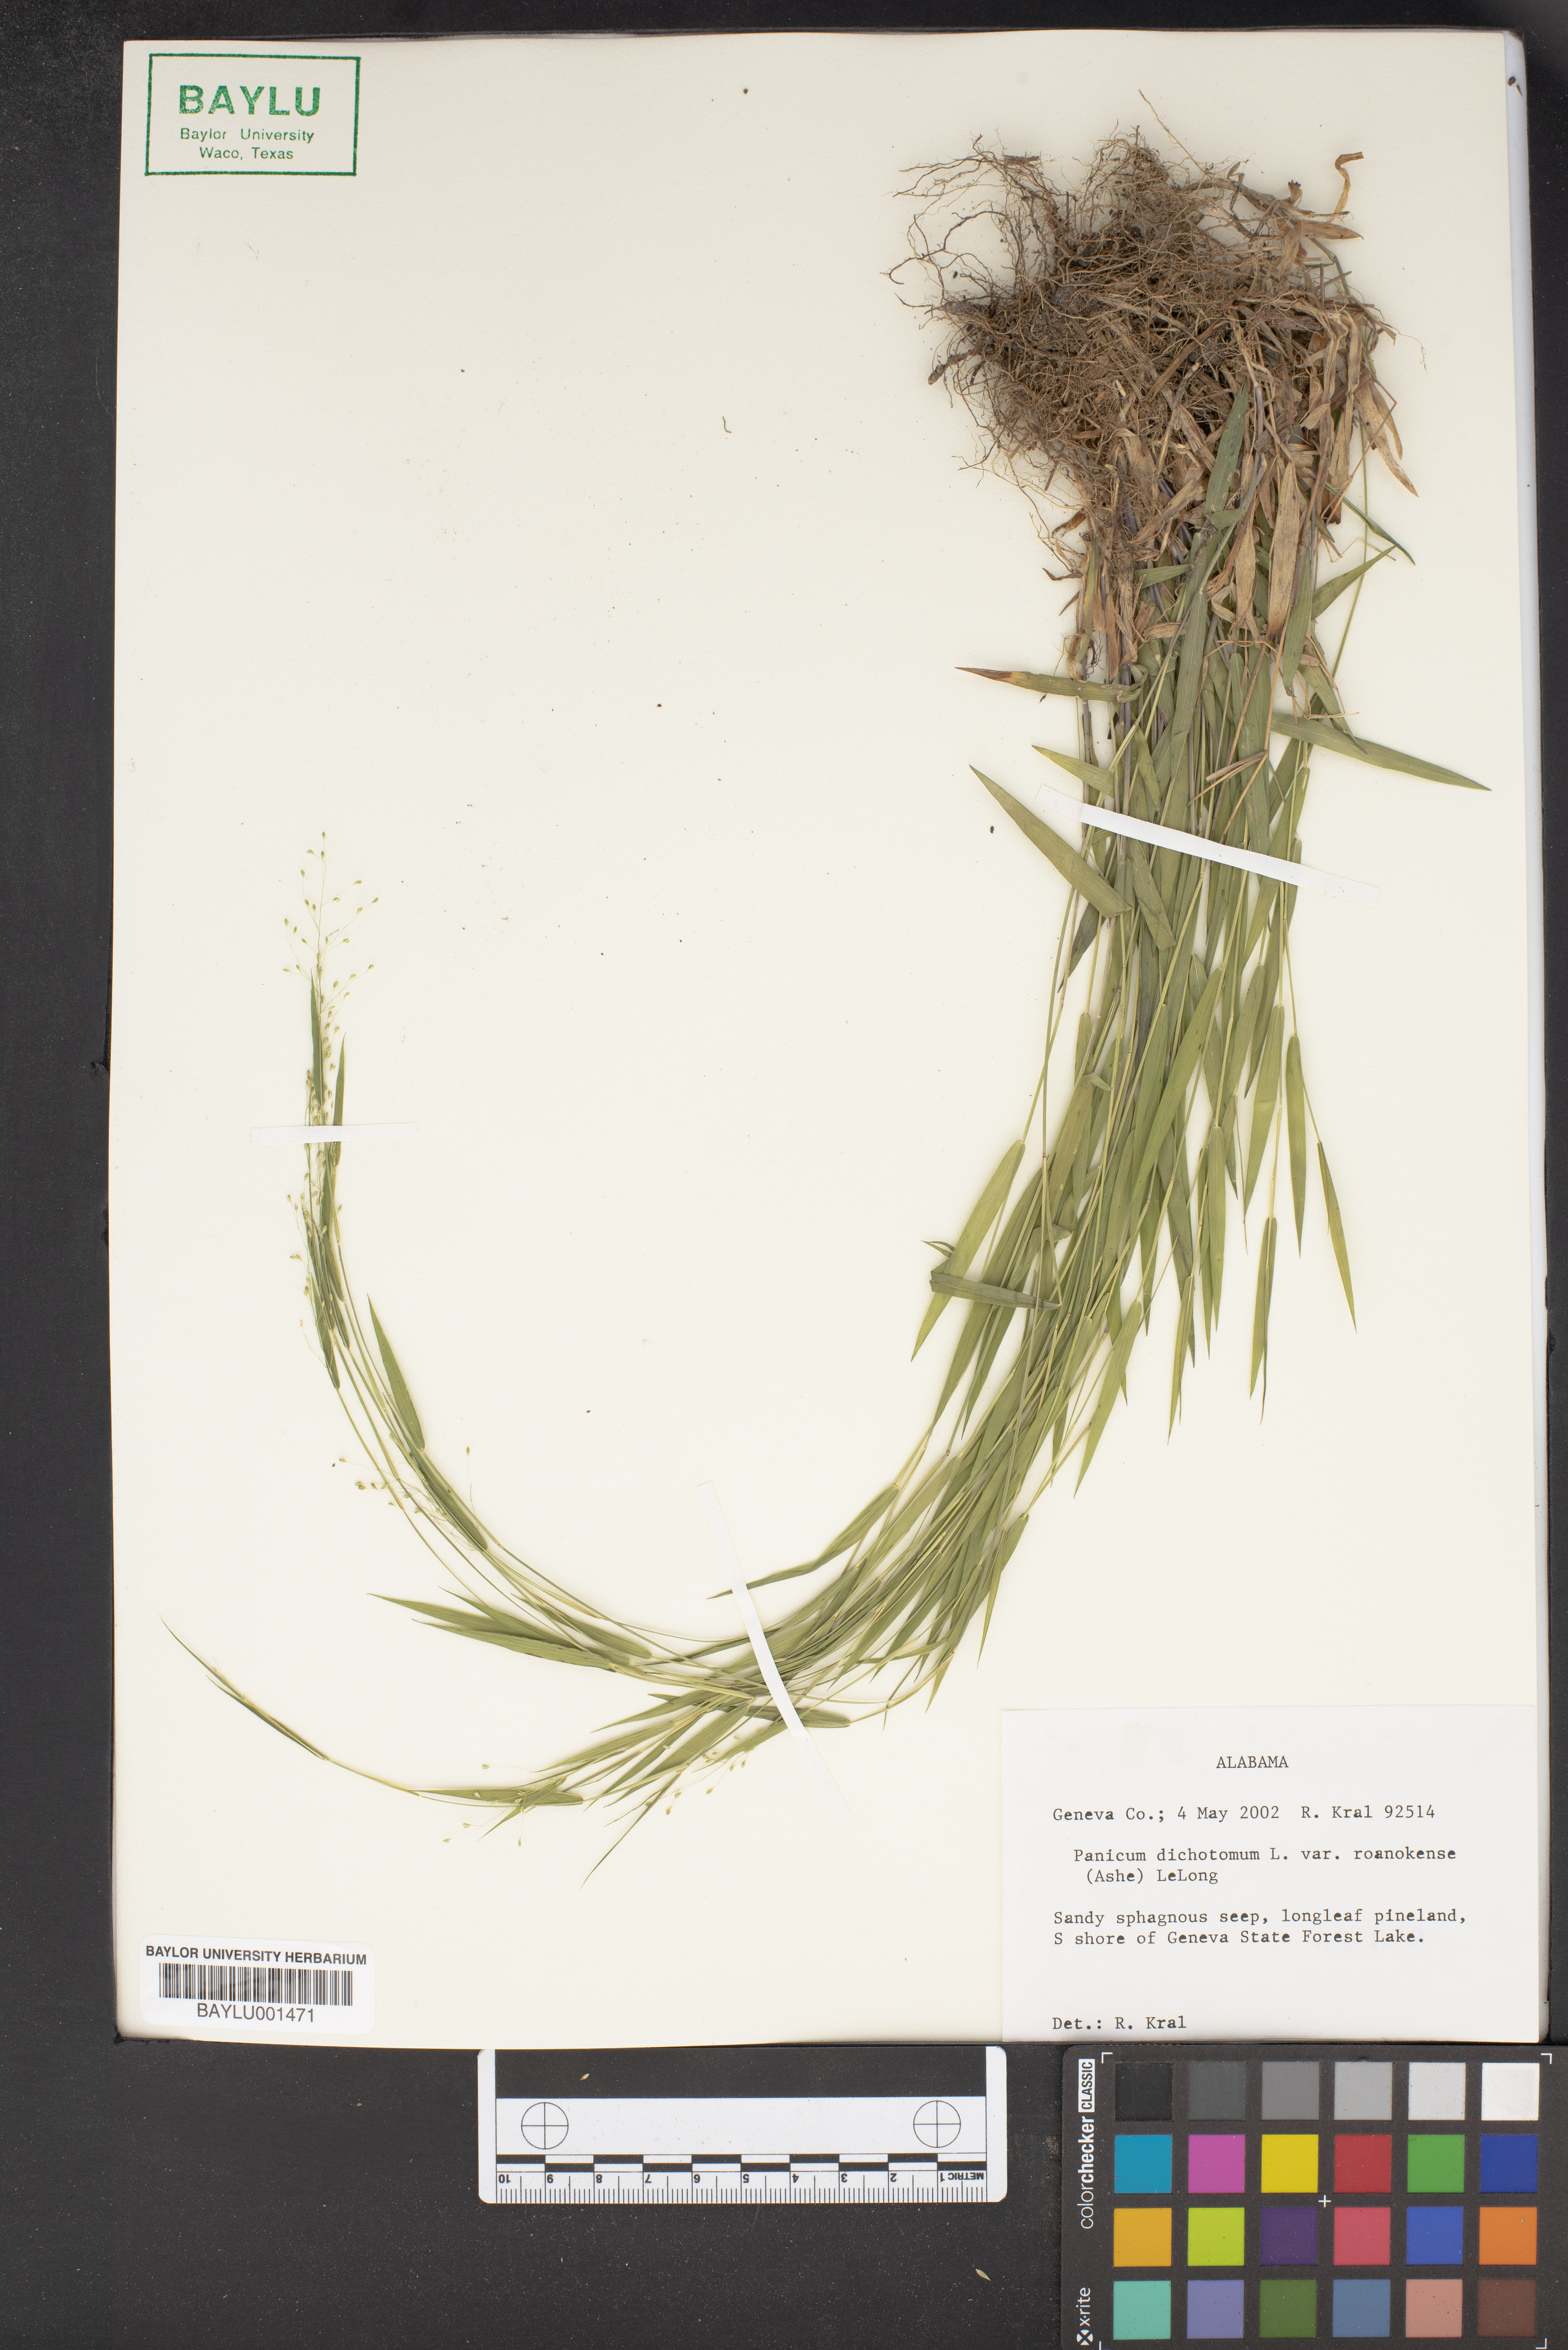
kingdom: Plantae
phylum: Tracheophyta
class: Liliopsida
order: Poales
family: Poaceae
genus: Dichanthelium
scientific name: Dichanthelium roanokense
